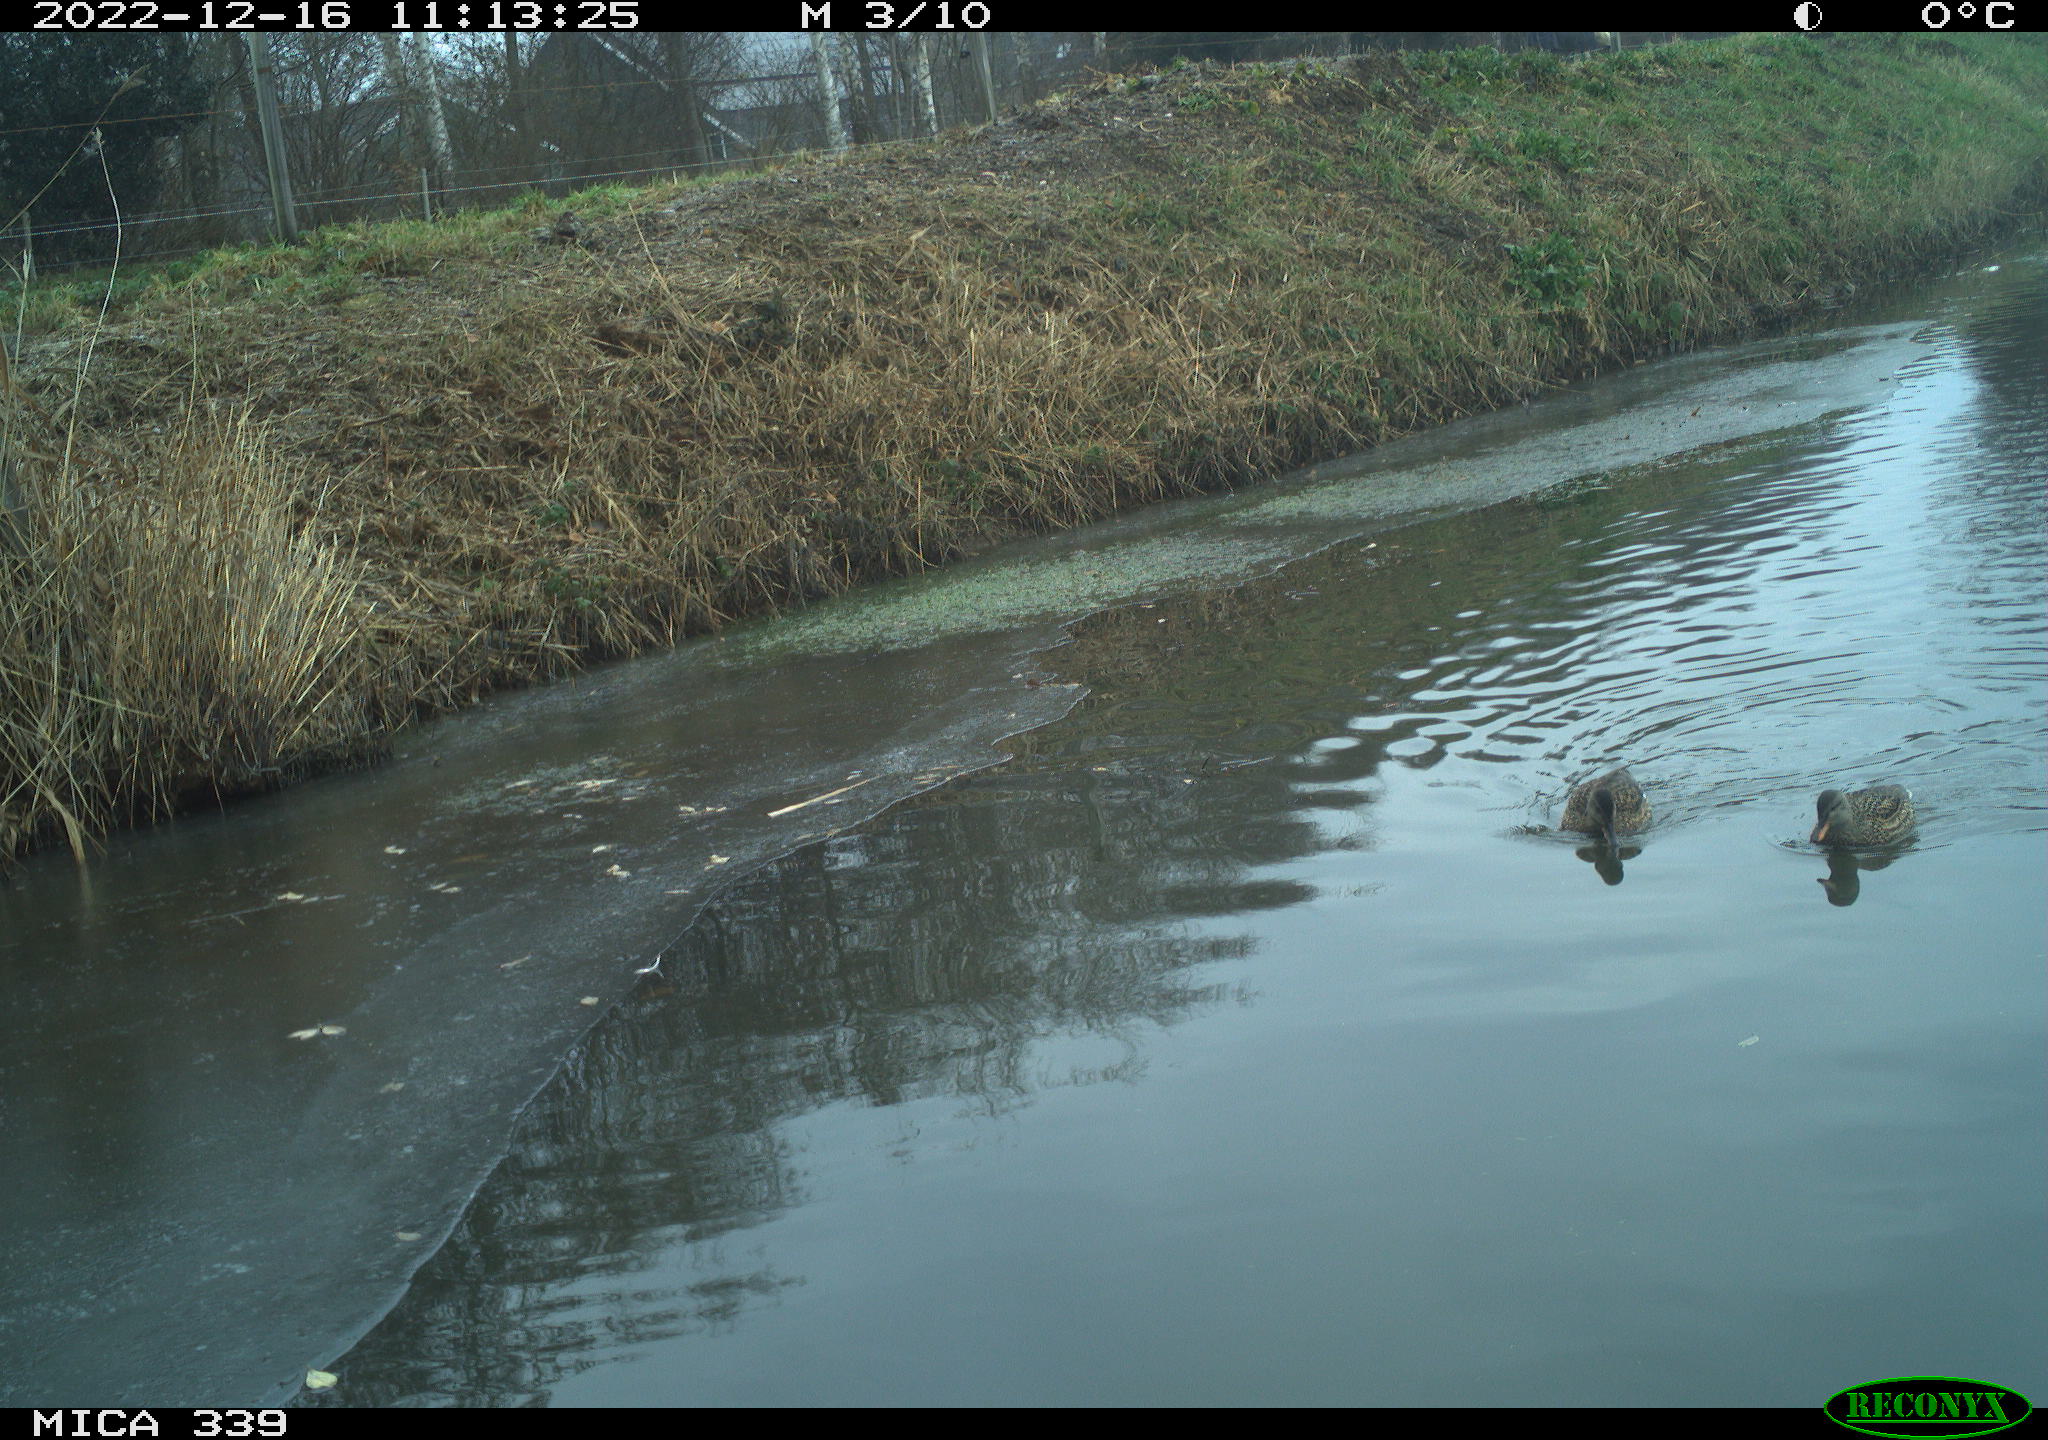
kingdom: Animalia
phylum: Chordata
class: Aves
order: Anseriformes
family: Anatidae
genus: Anas
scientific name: Anas
